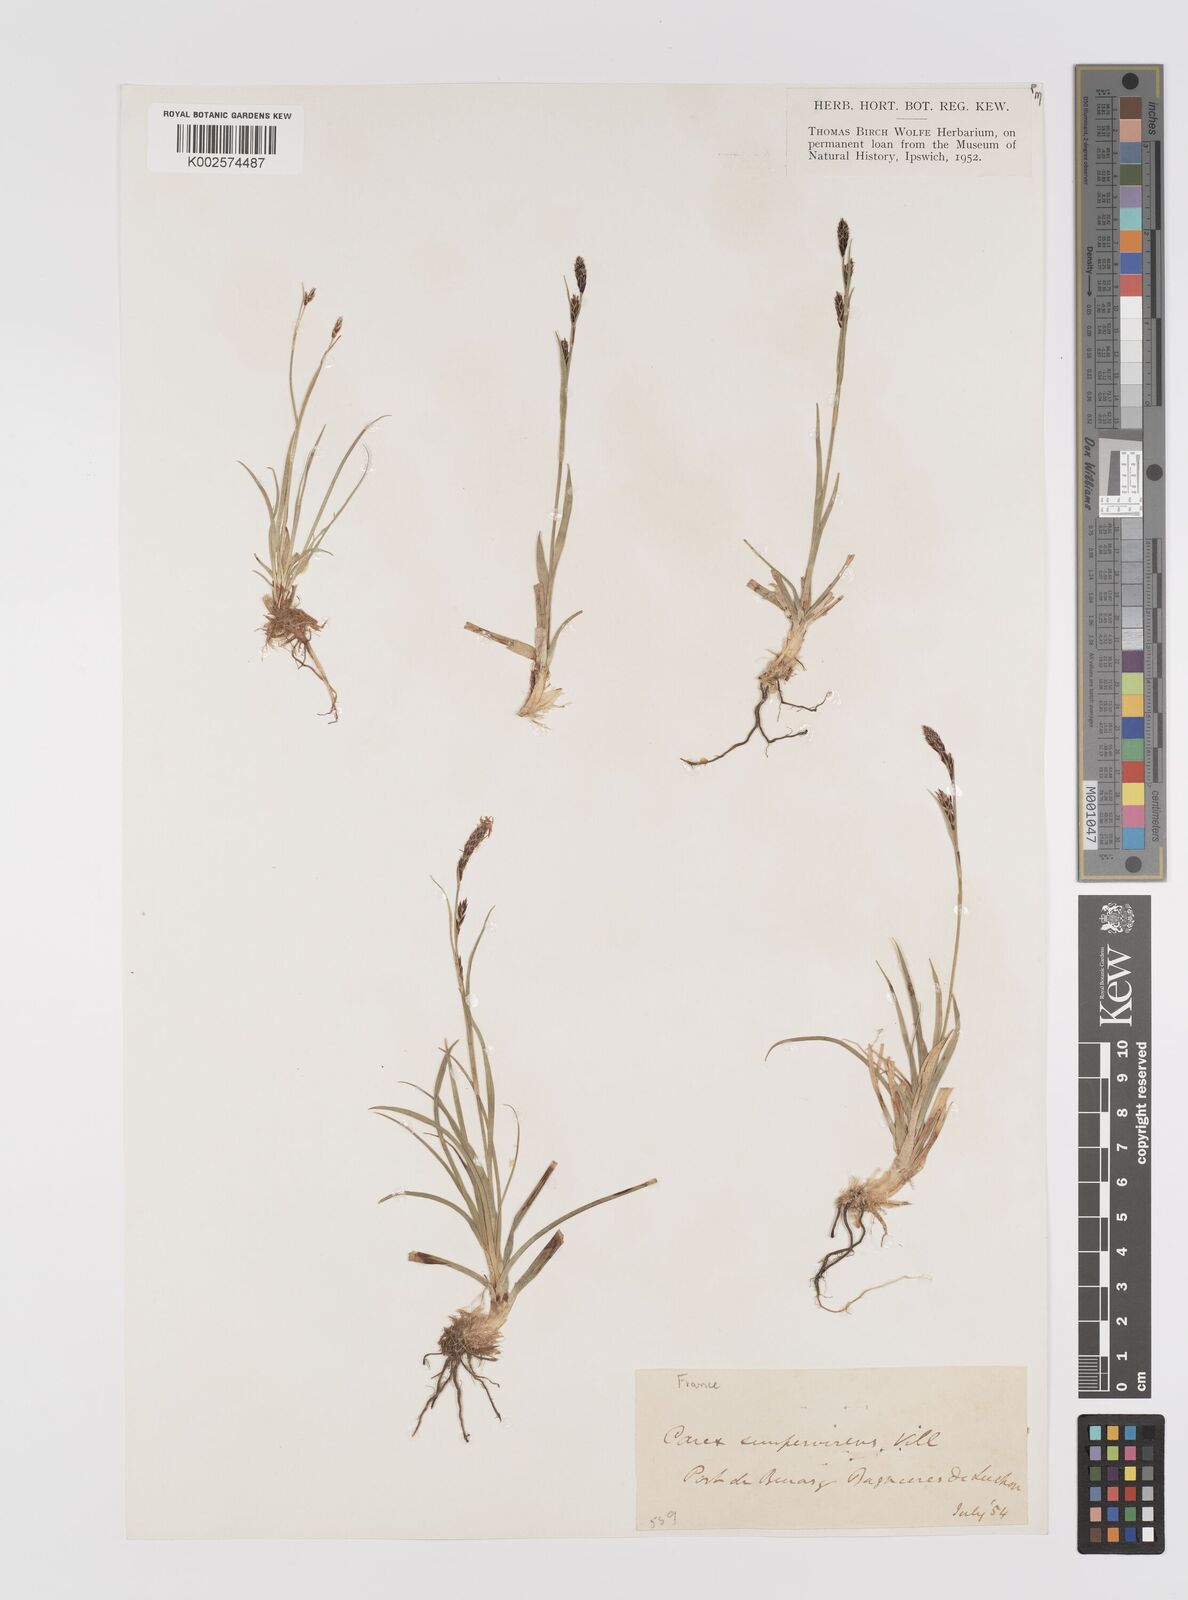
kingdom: Plantae
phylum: Tracheophyta
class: Liliopsida
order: Poales
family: Cyperaceae
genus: Carex
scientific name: Carex sempervirens
